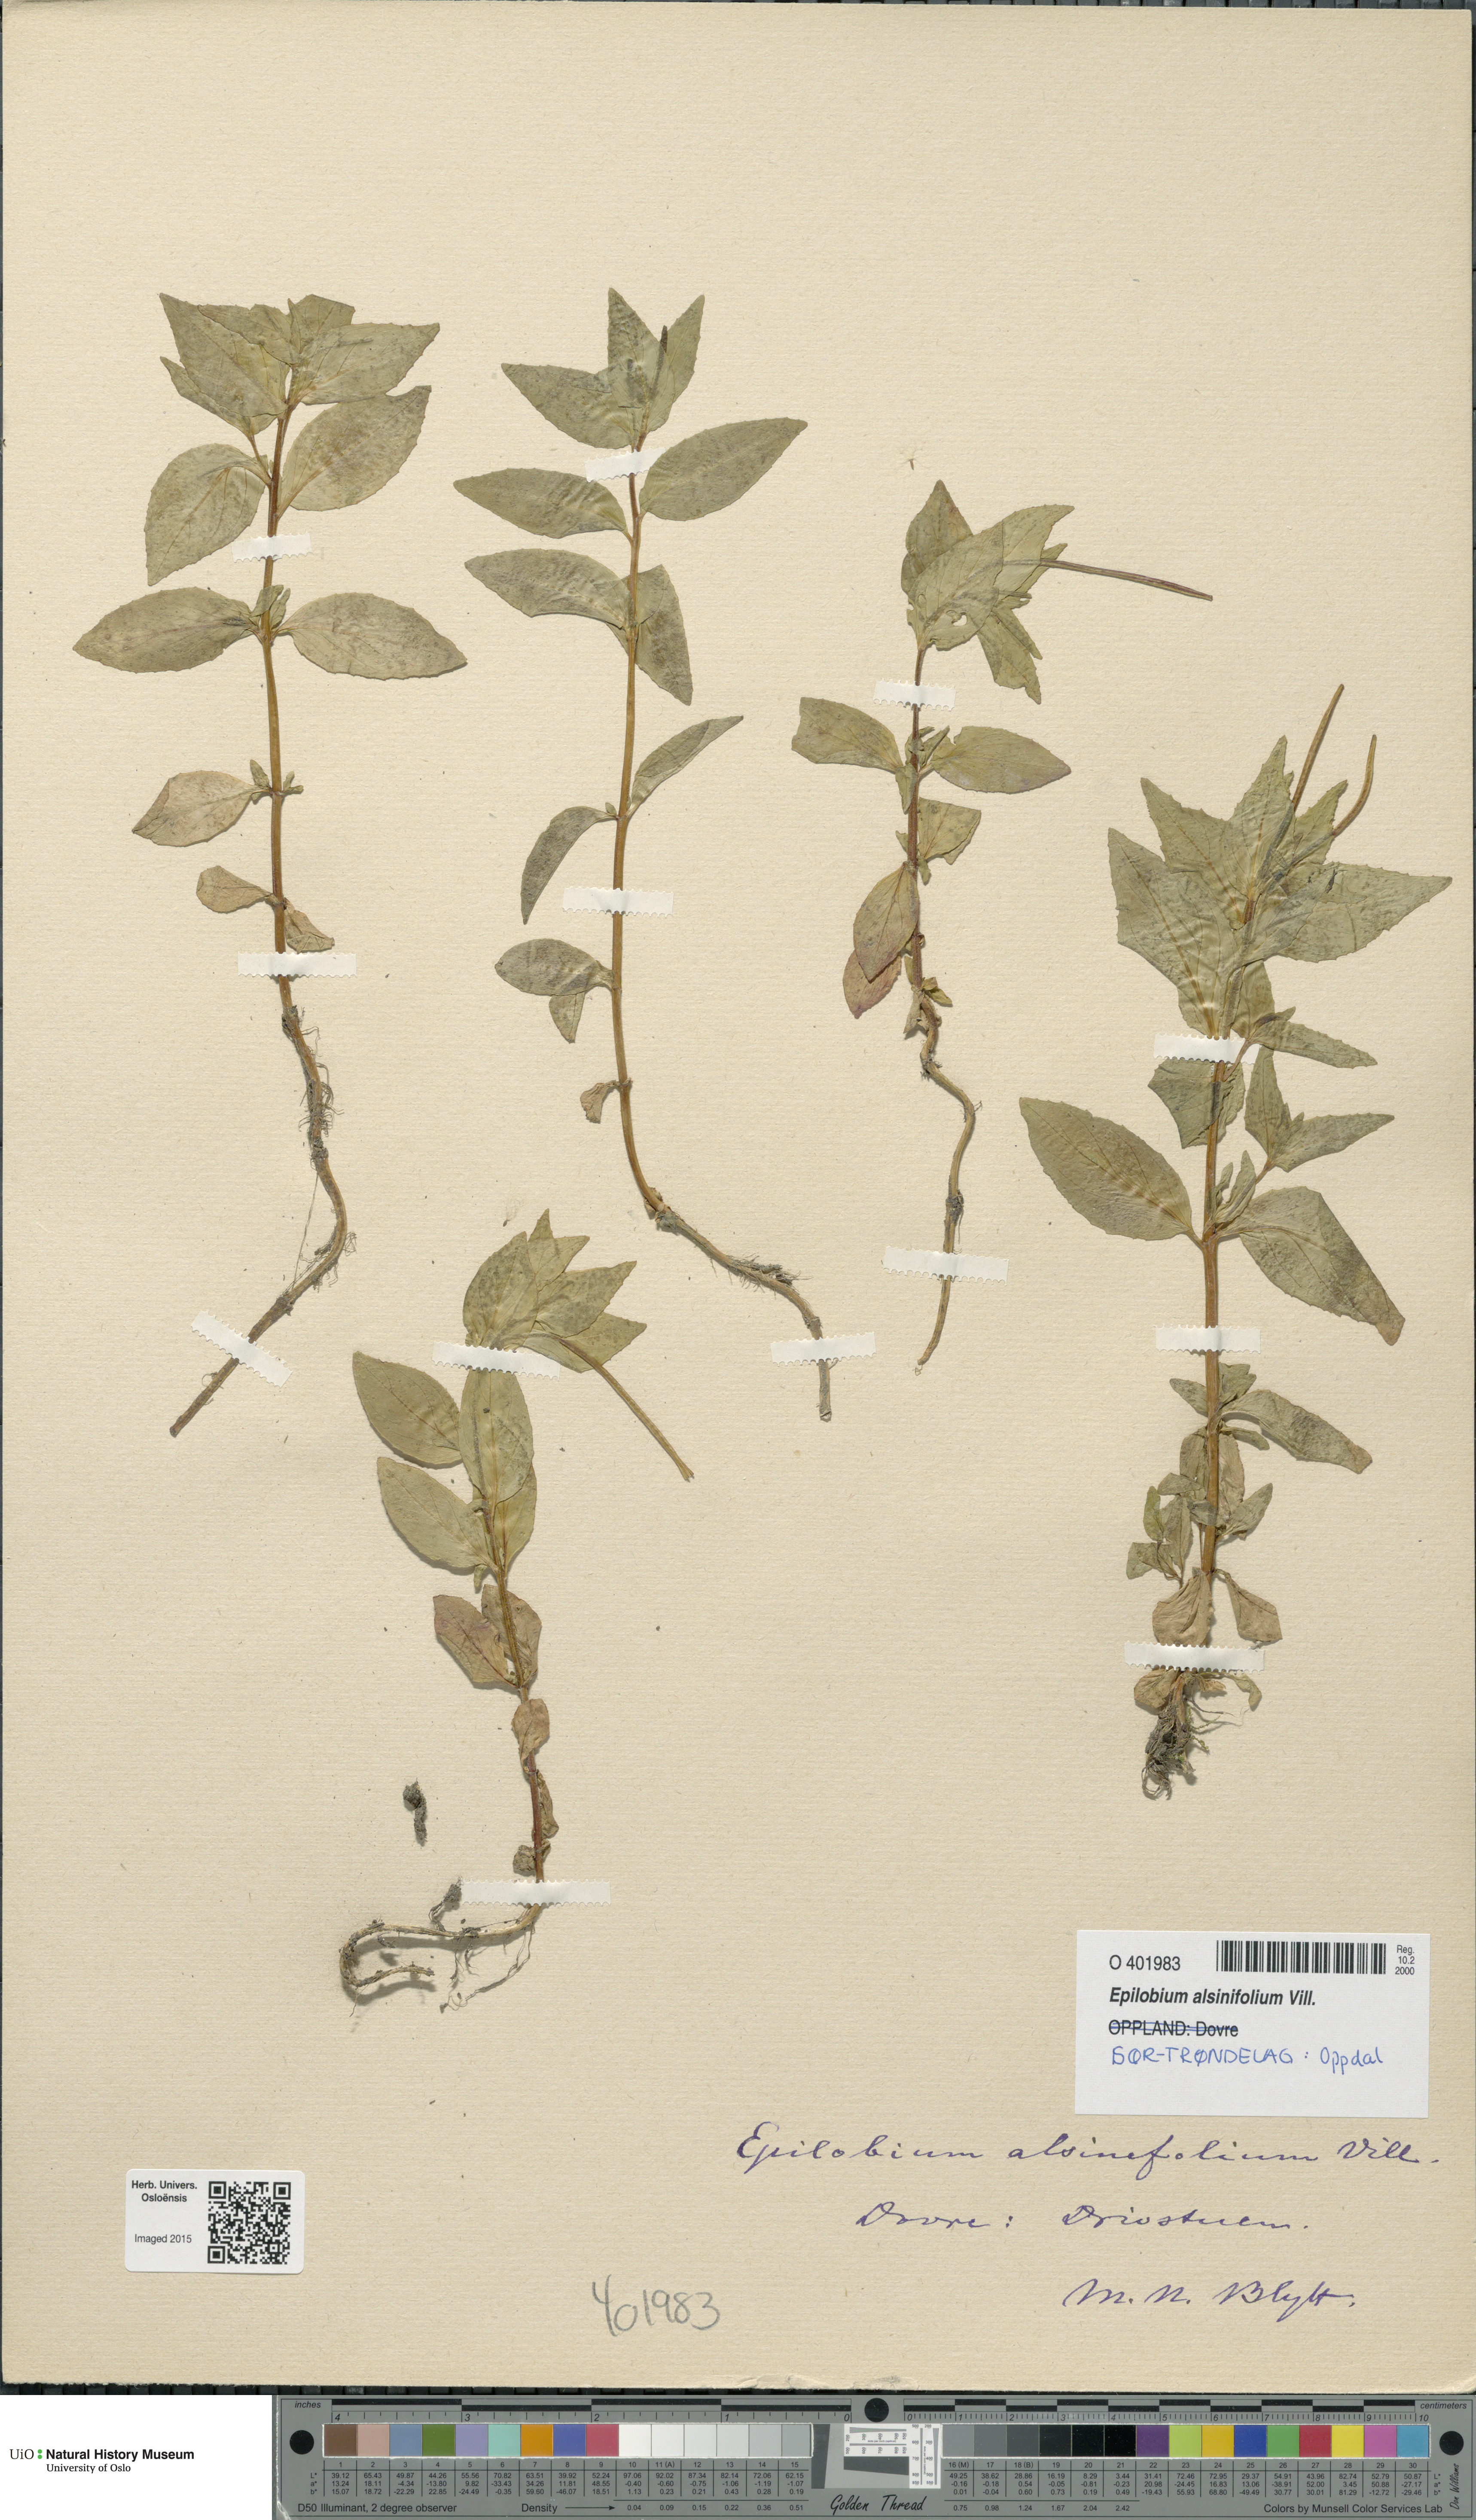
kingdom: Plantae
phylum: Tracheophyta
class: Magnoliopsida
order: Myrtales
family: Onagraceae
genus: Epilobium
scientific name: Epilobium alsinifolium
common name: Chickweed willowherb
